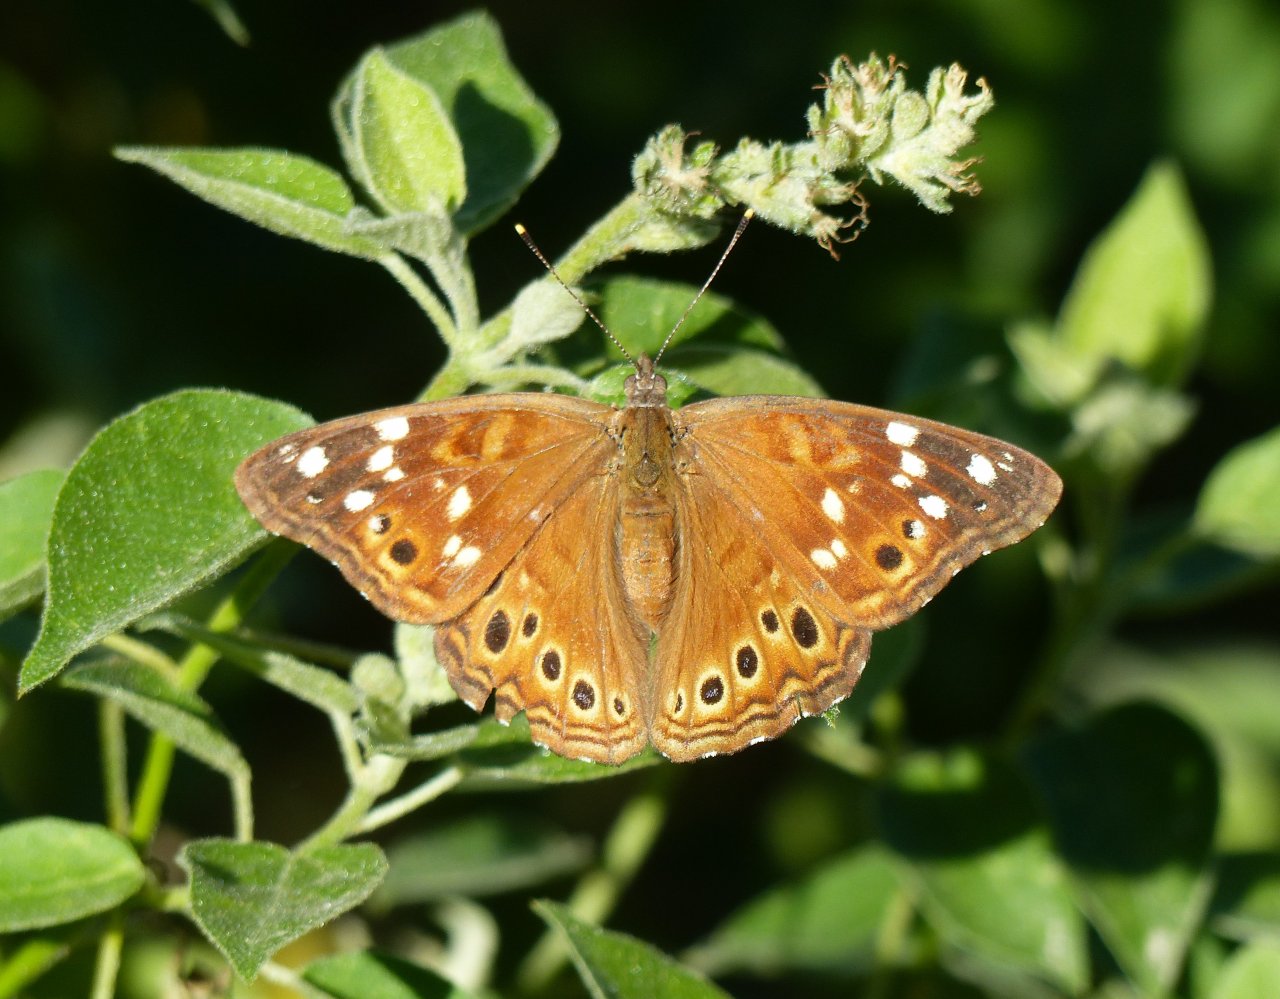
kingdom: Animalia
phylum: Arthropoda
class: Insecta
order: Lepidoptera
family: Nymphalidae
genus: Asterocampa
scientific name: Asterocampa leilia
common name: Empress Leilia
